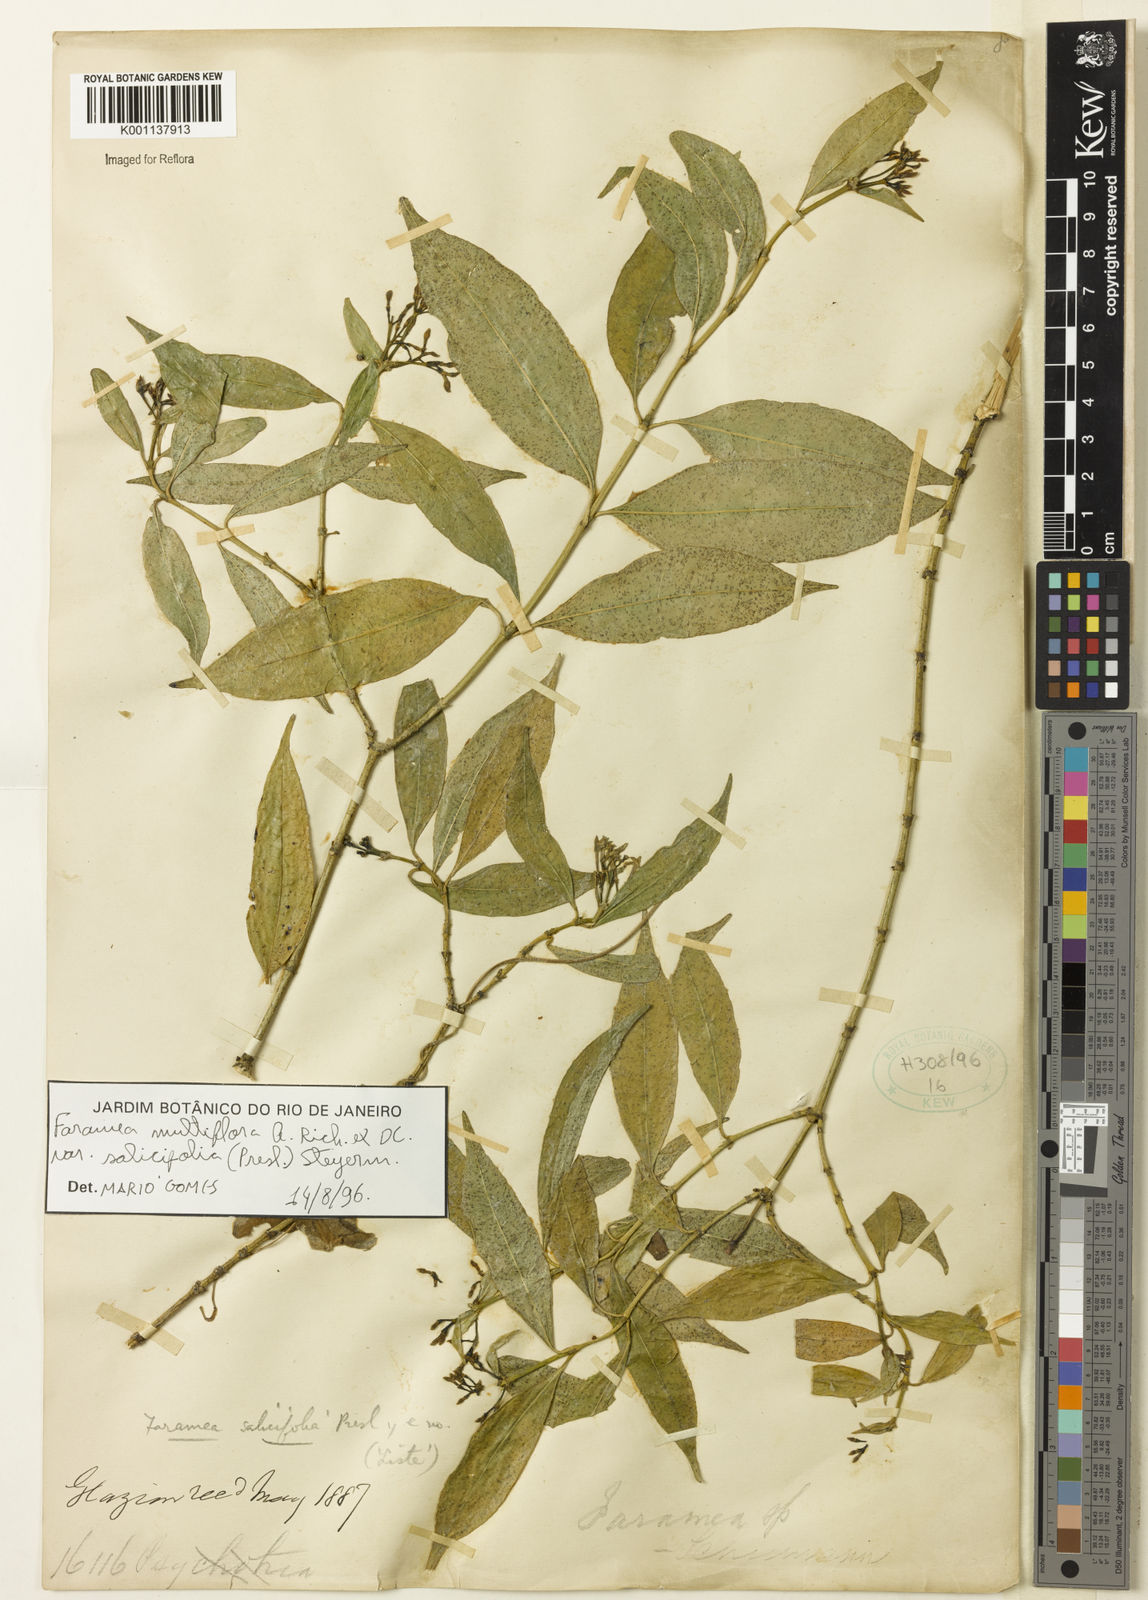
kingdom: Plantae
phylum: Tracheophyta
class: Magnoliopsida
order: Gentianales
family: Rubiaceae
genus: Faramea
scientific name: Faramea multiflora
